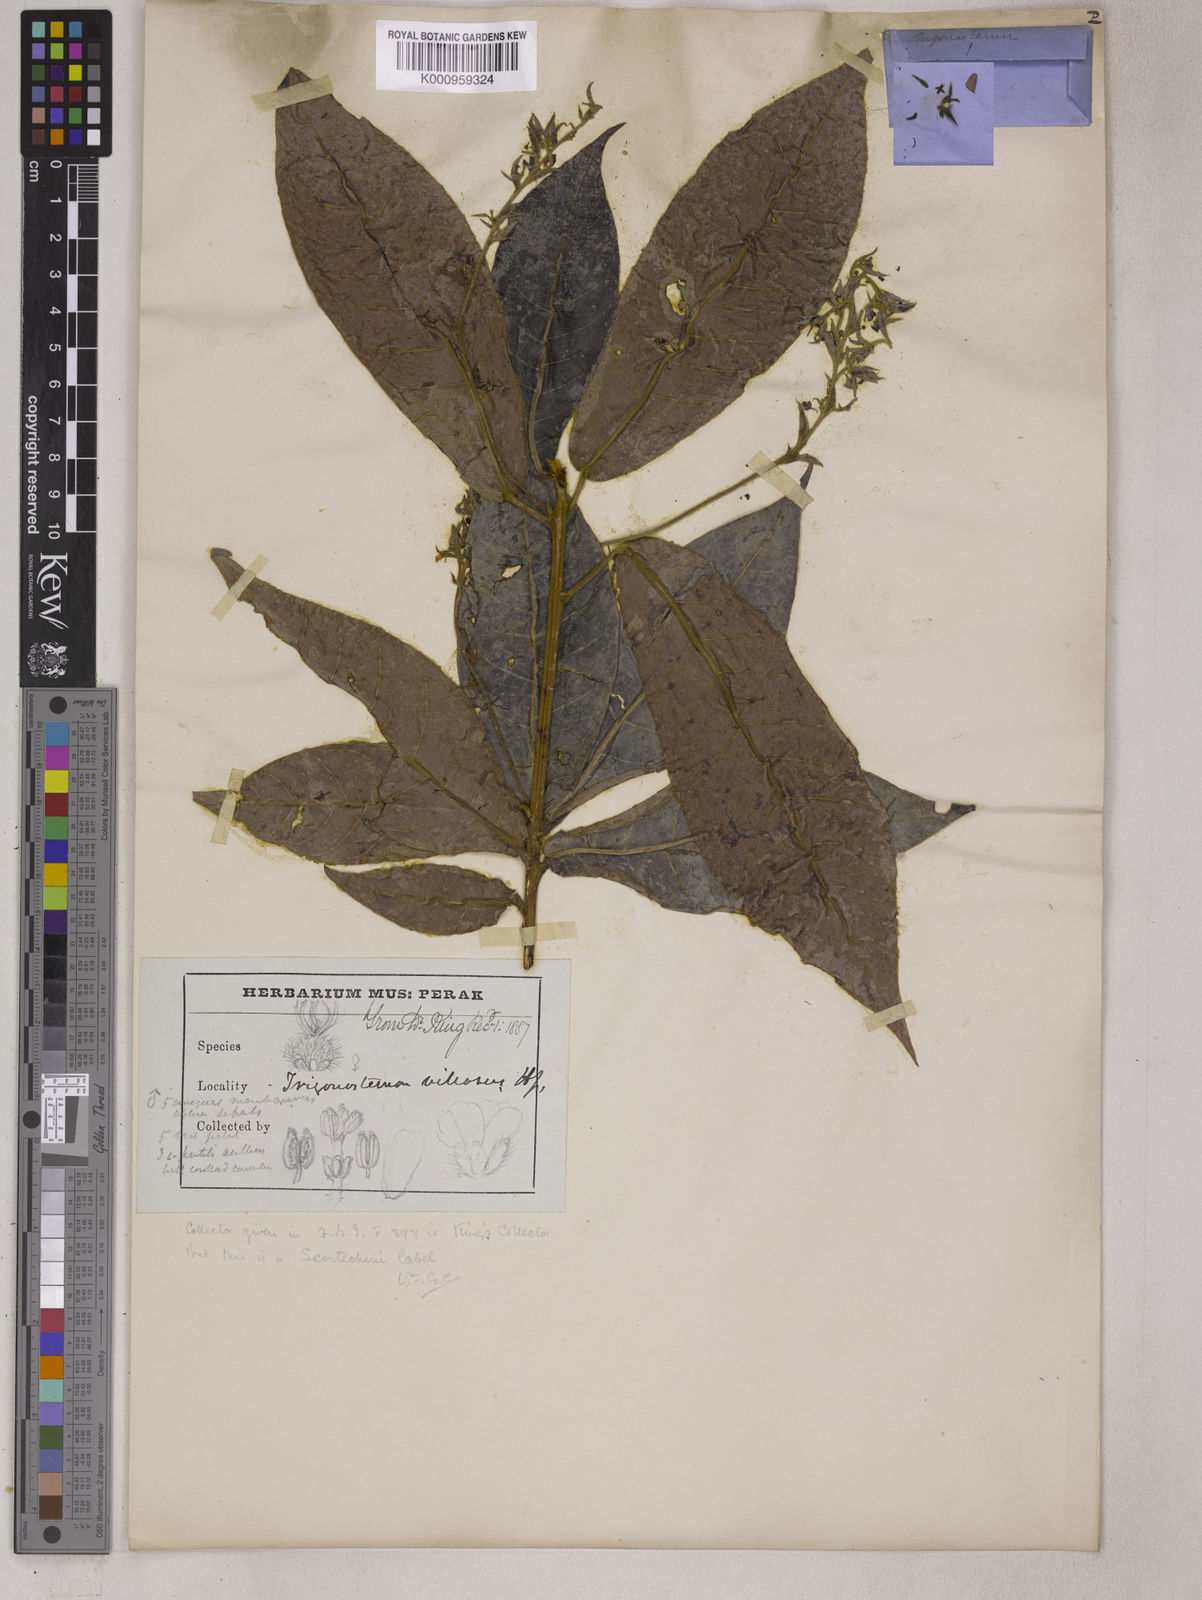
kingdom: Plantae
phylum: Tracheophyta
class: Magnoliopsida
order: Malpighiales
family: Euphorbiaceae
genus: Trigonostemon
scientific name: Trigonostemon villosus
